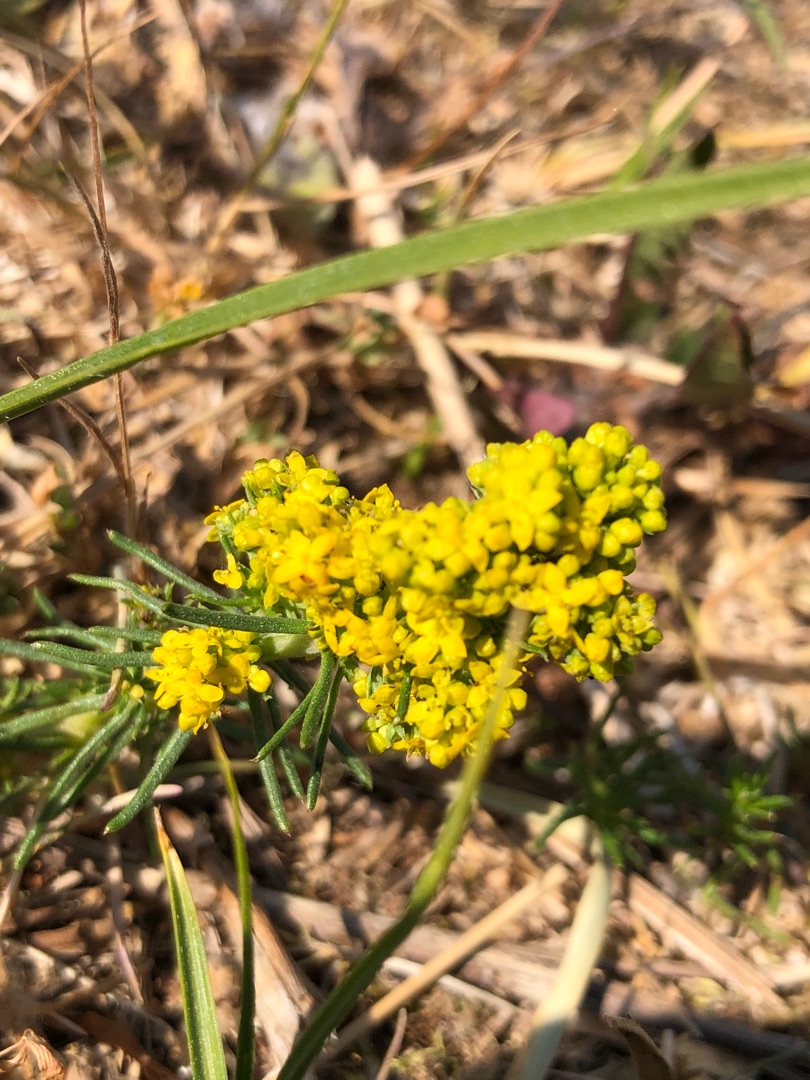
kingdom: Plantae
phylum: Tracheophyta
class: Magnoliopsida
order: Gentianales
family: Rubiaceae
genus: Galium
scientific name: Galium verum
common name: Gul snerre
